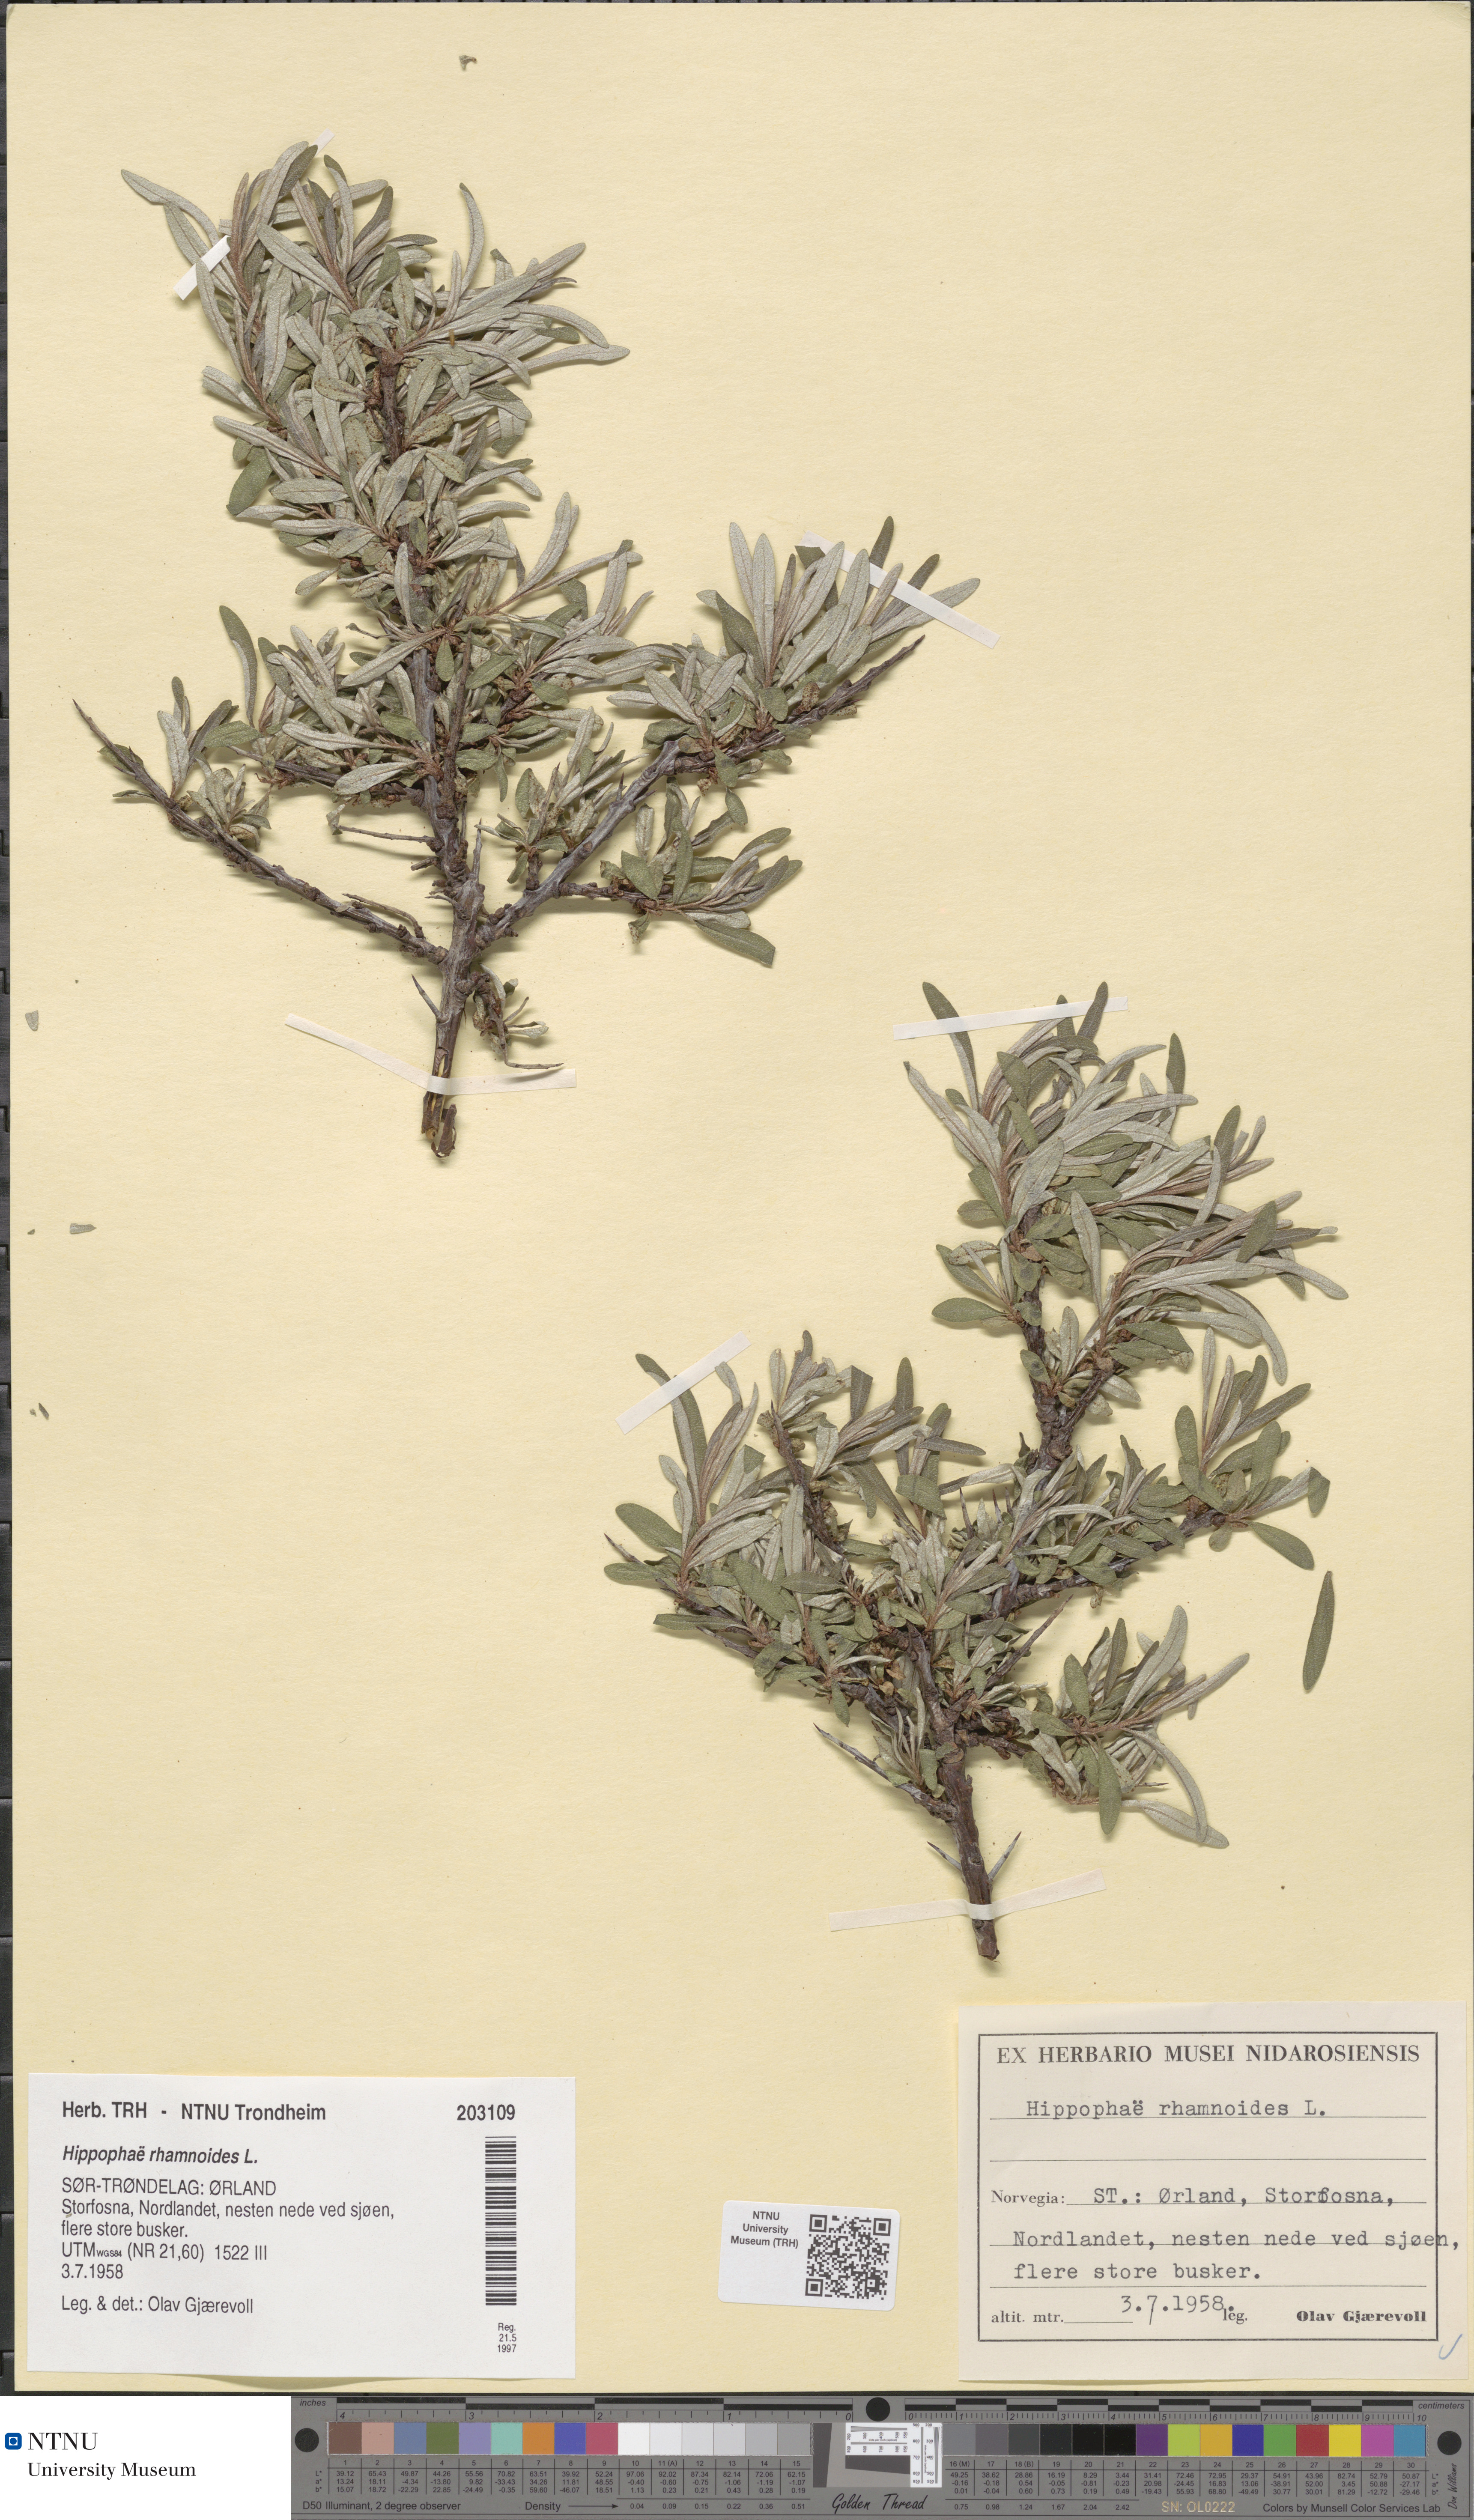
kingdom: Plantae
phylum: Tracheophyta
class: Magnoliopsida
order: Rosales
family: Elaeagnaceae
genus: Hippophae
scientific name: Hippophae rhamnoides
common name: Sea-buckthorn
